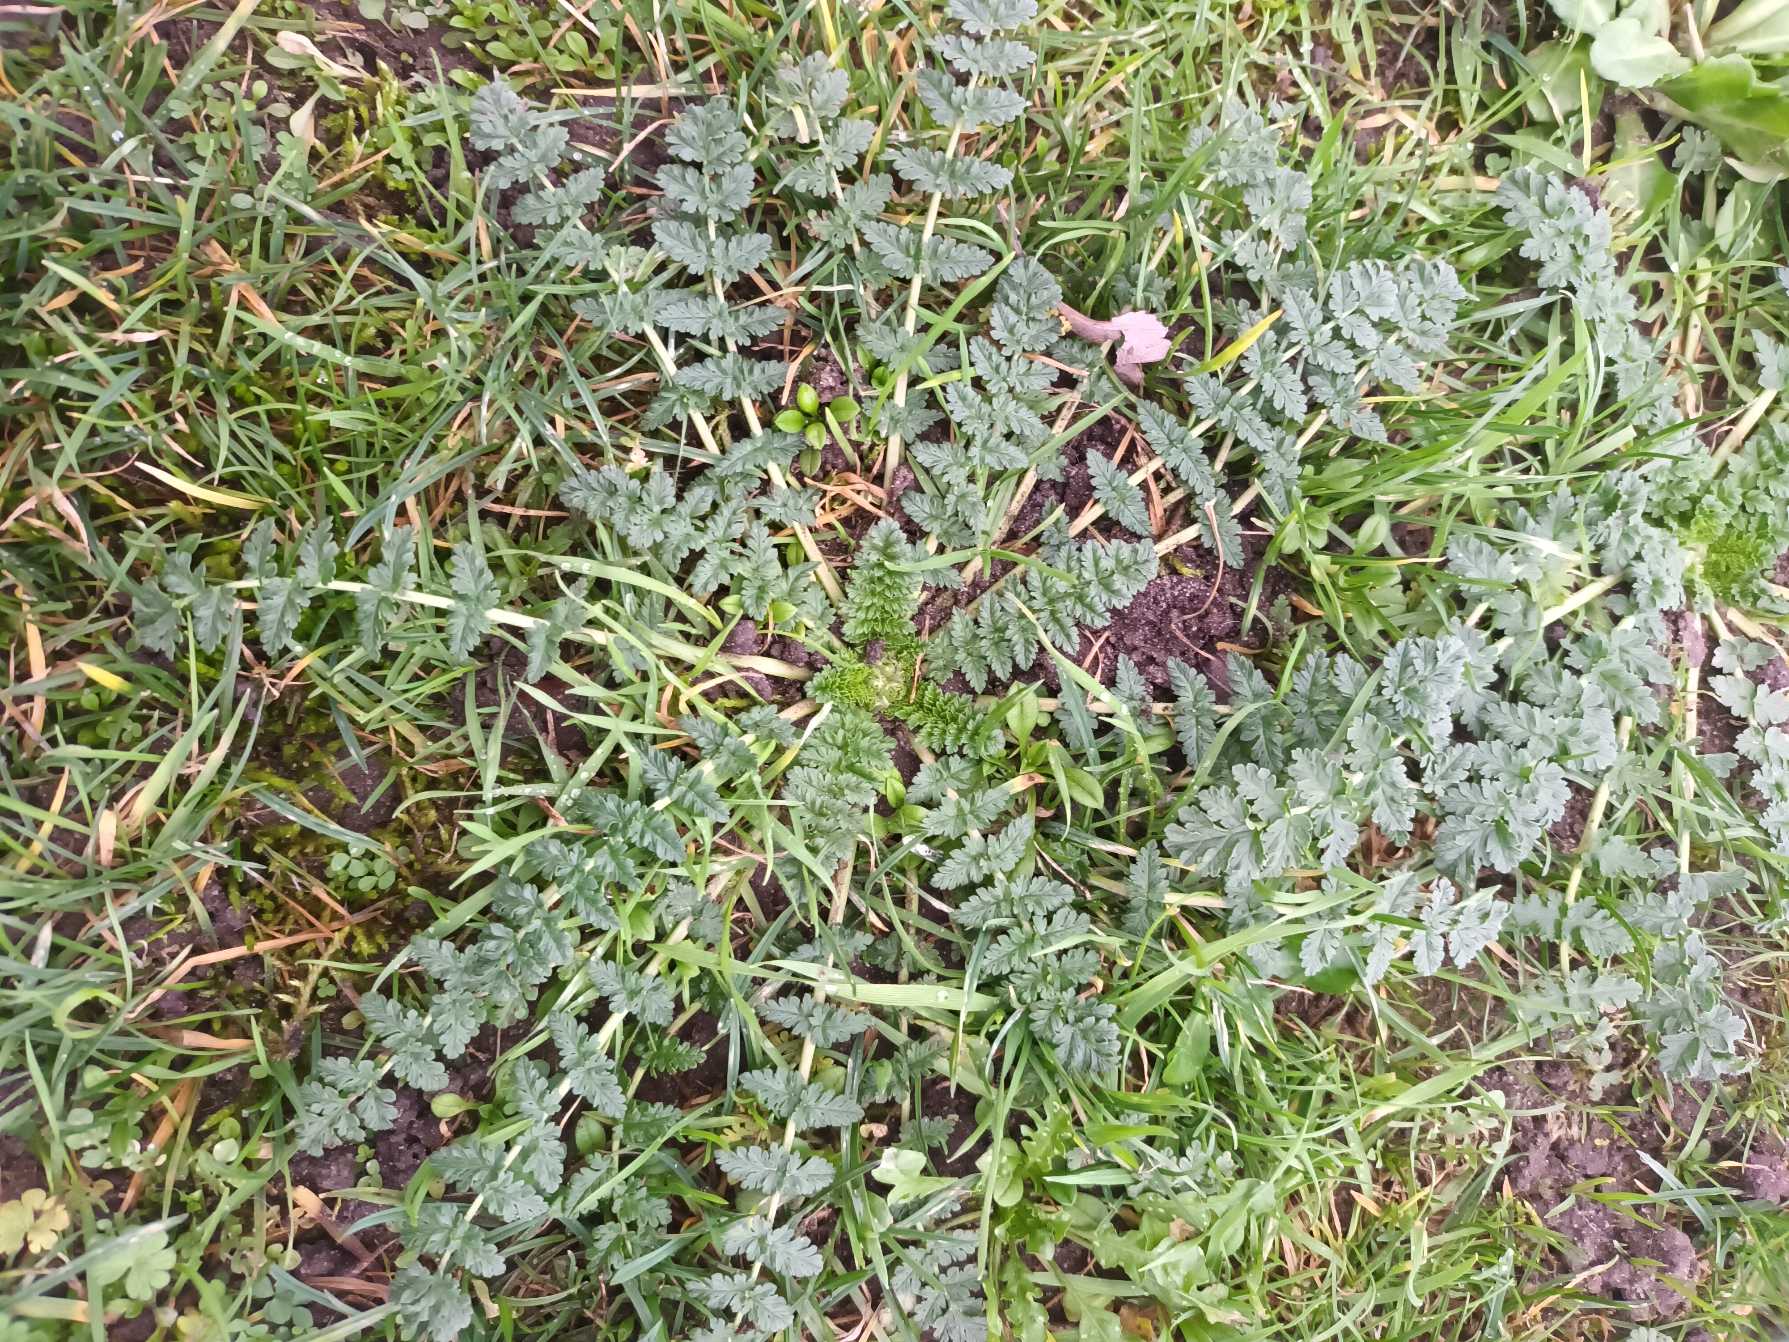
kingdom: Plantae
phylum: Tracheophyta
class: Magnoliopsida
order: Geraniales
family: Geraniaceae
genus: Erodium
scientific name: Erodium cicutarium
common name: Hejrenæb
